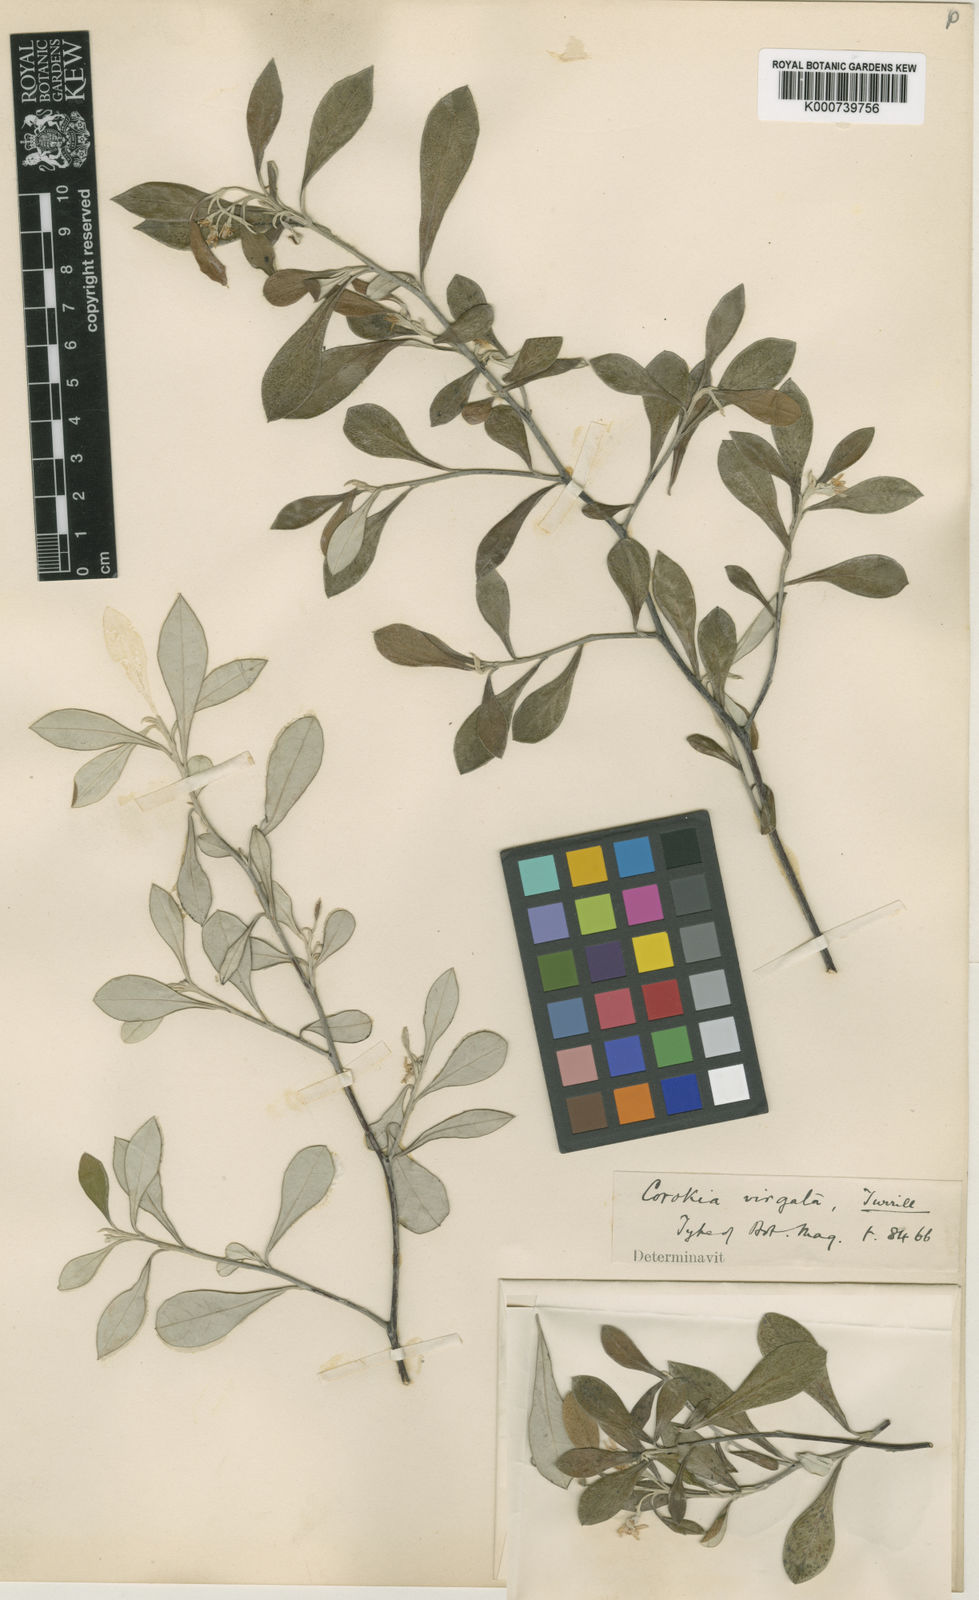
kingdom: Plantae
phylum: Tracheophyta
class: Magnoliopsida
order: Asterales
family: Argophyllaceae
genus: Corokia
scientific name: Corokia virgata
